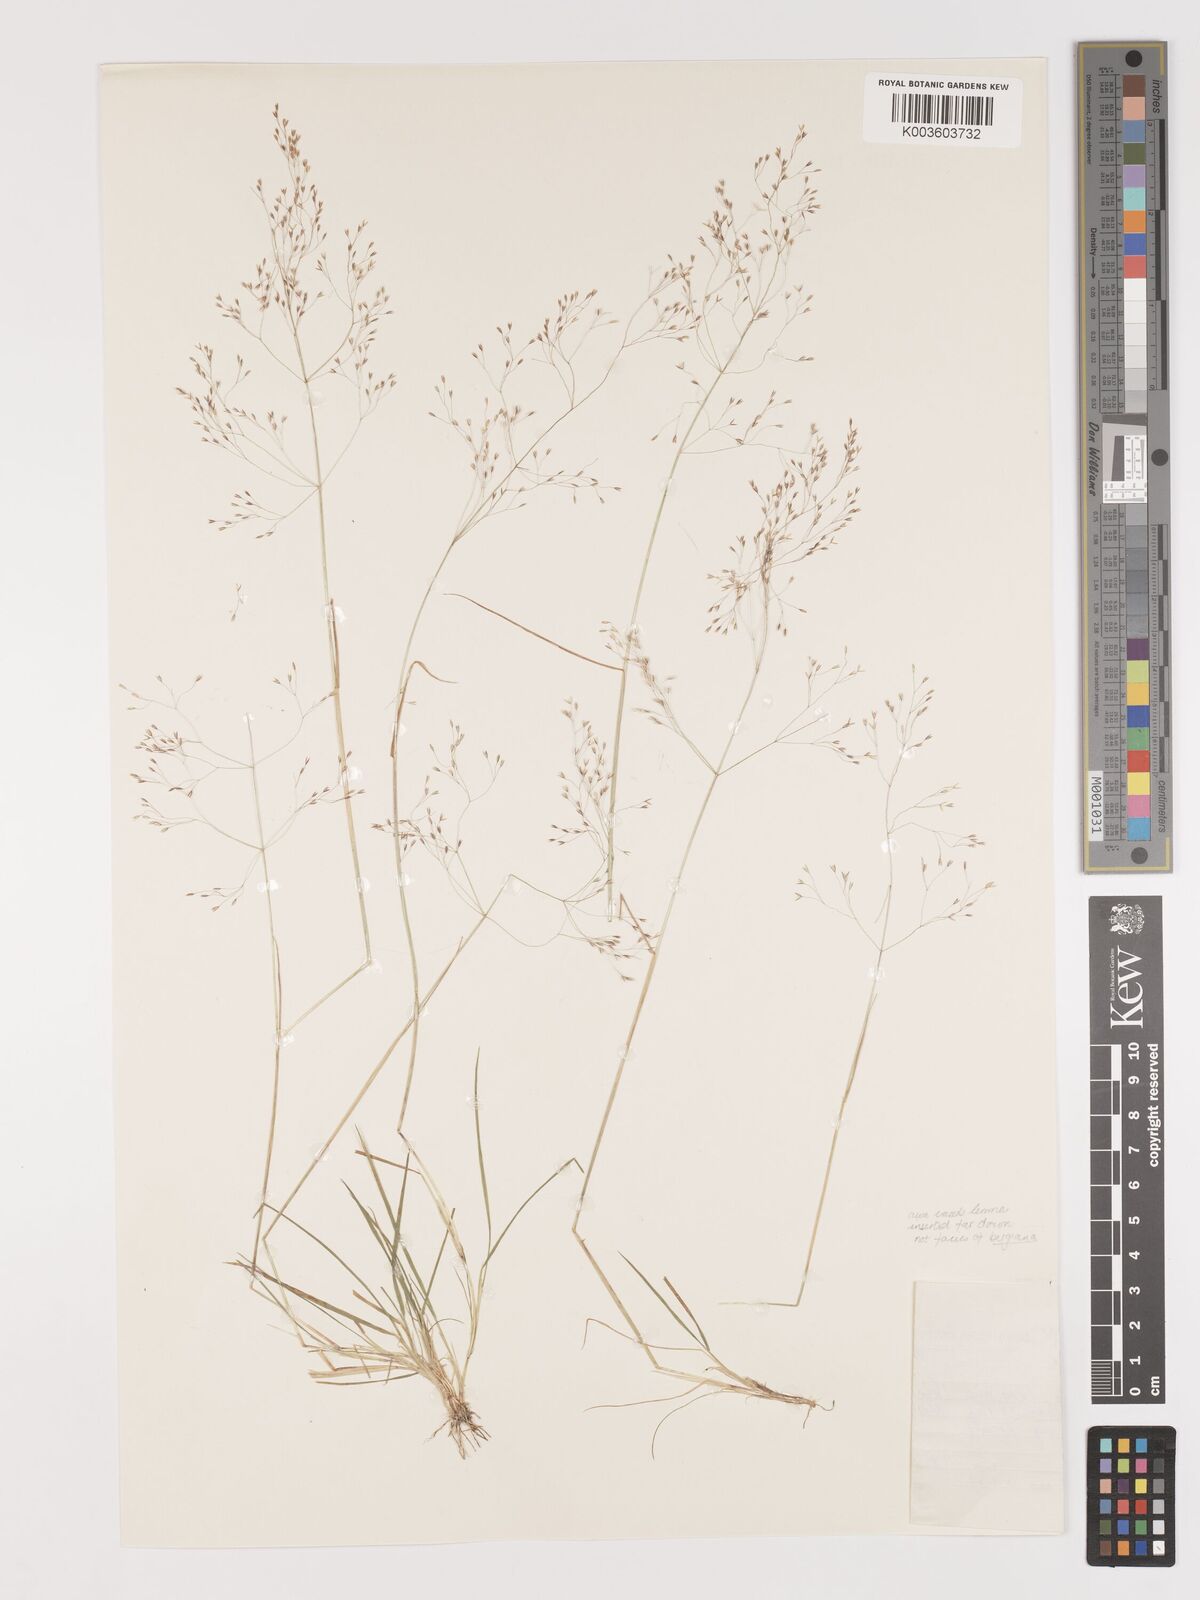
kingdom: Plantae
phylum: Tracheophyta
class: Liliopsida
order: Poales
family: Poaceae
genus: Agrostis
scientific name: Agrostis bergiana
